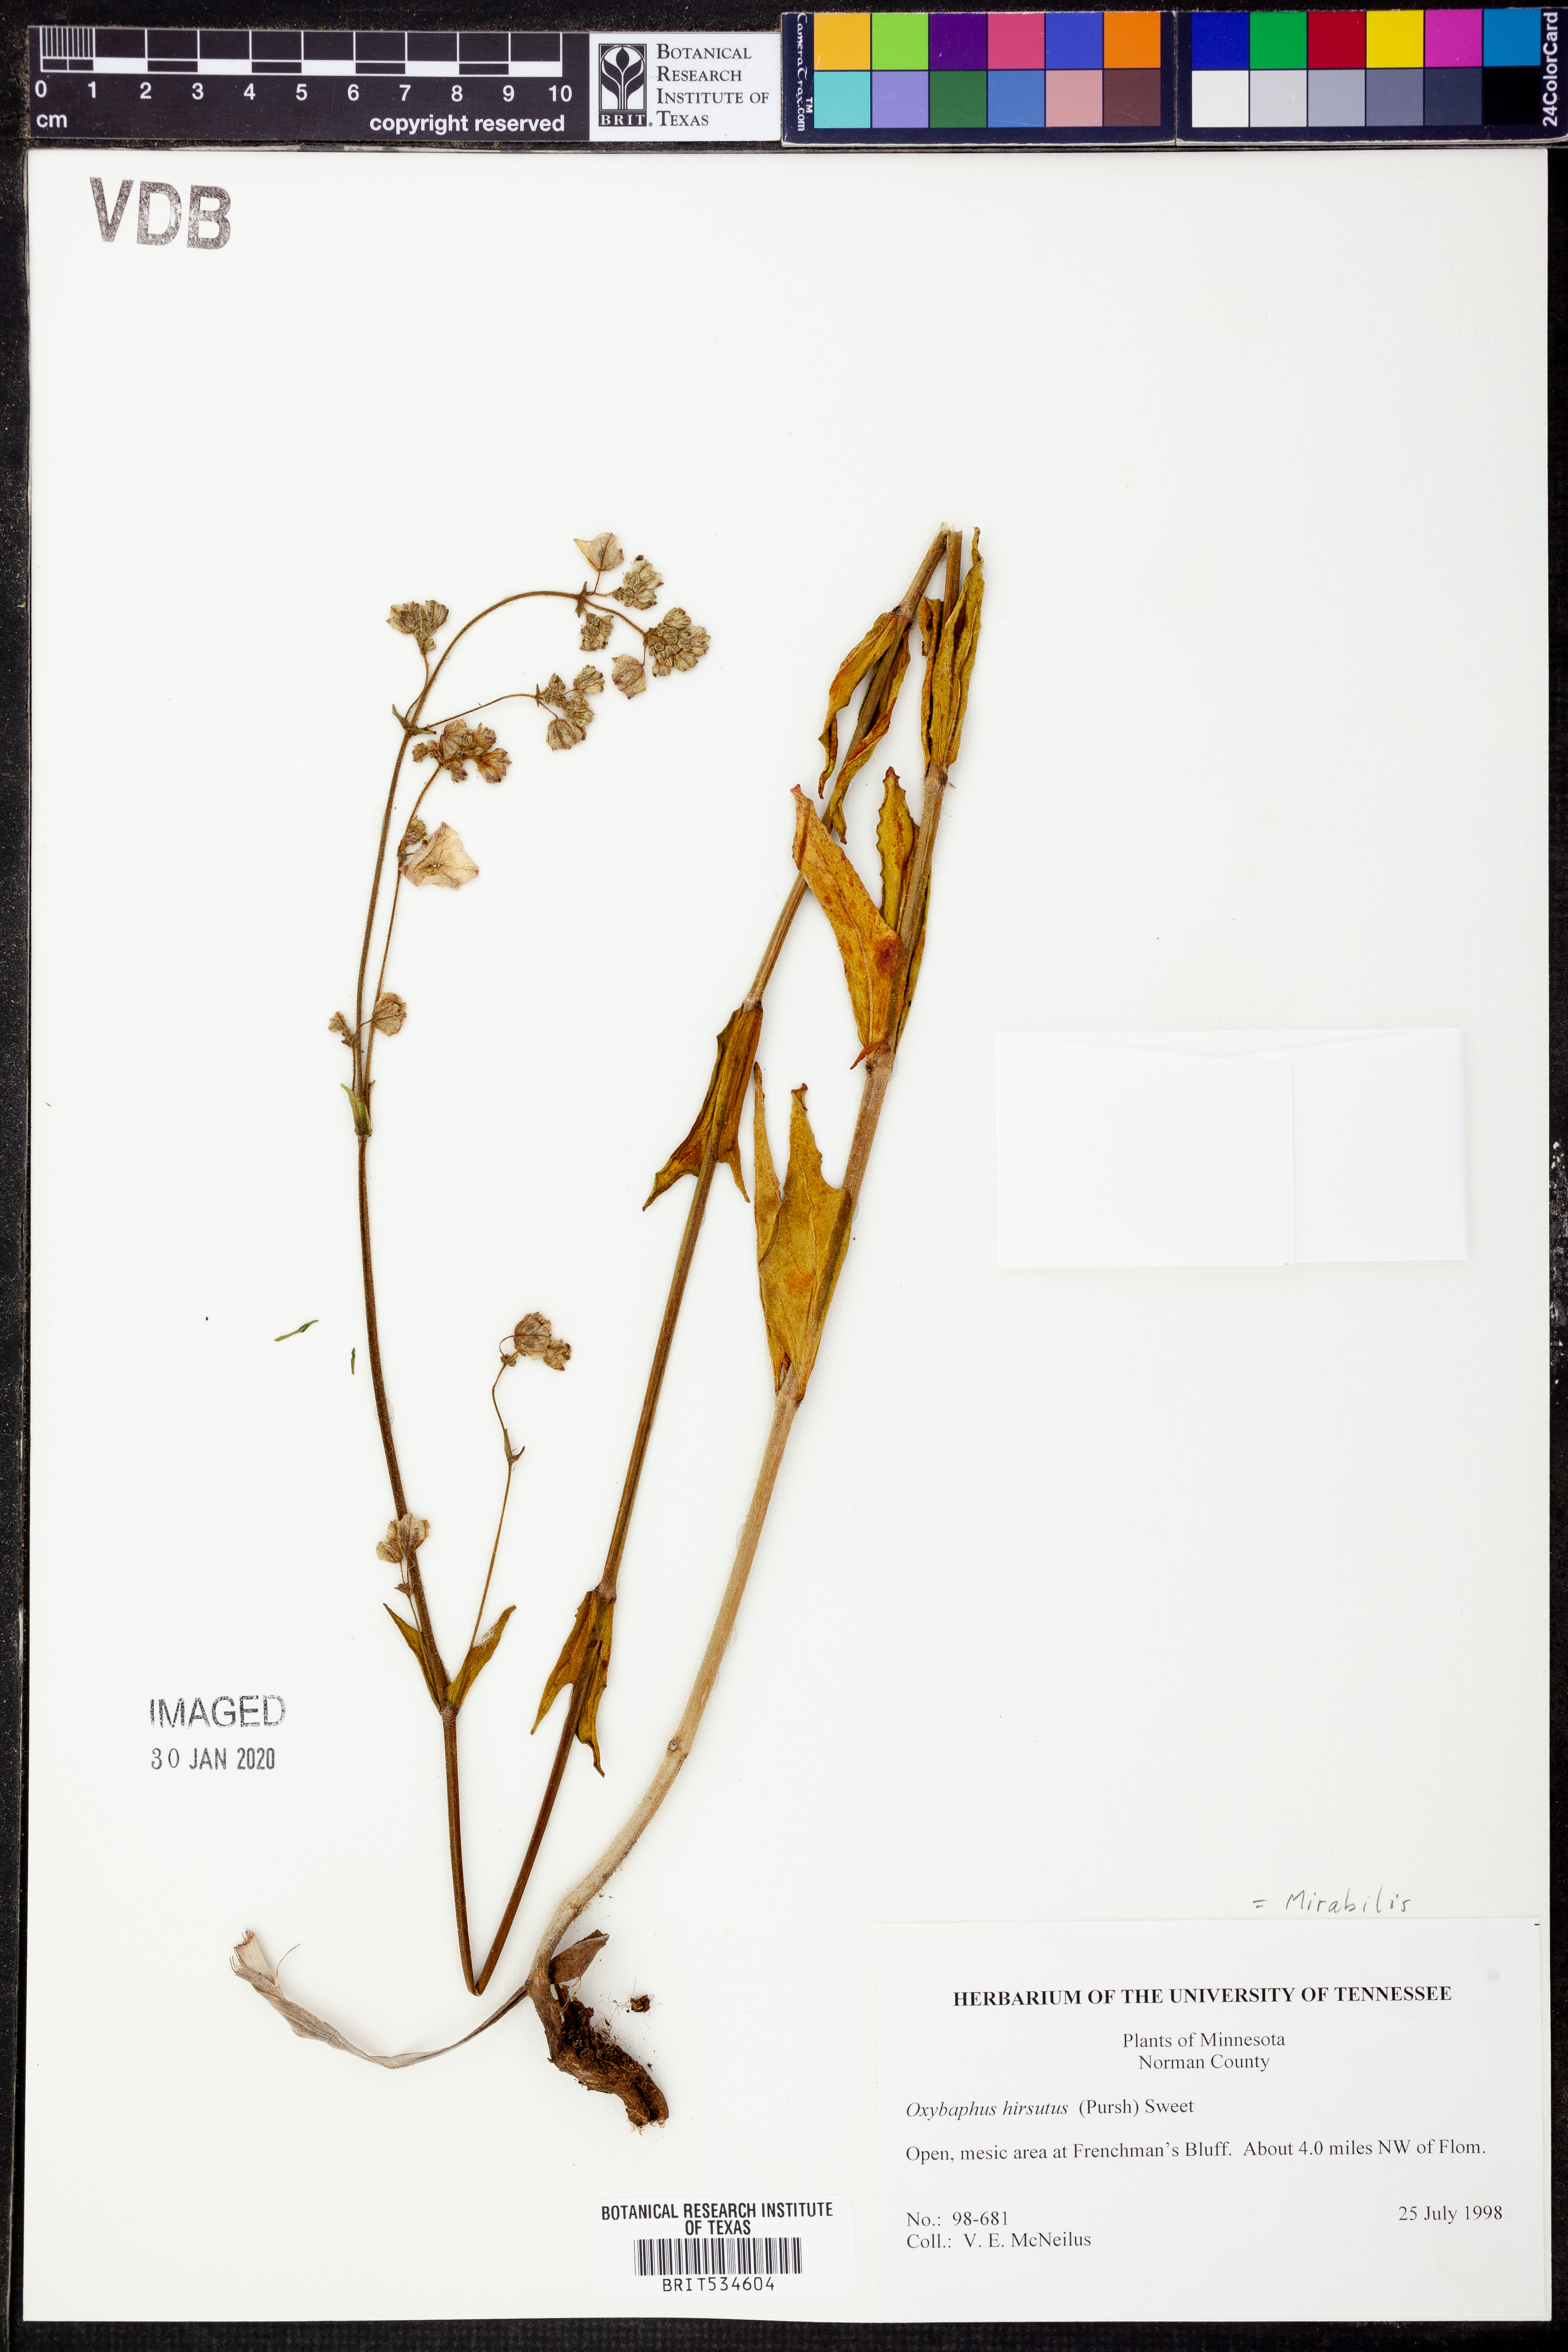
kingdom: Plantae
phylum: Tracheophyta
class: Magnoliopsida
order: Caryophyllales
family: Nyctaginaceae
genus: Mirabilis
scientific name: Mirabilis albida
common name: Hairy four-o'clock
